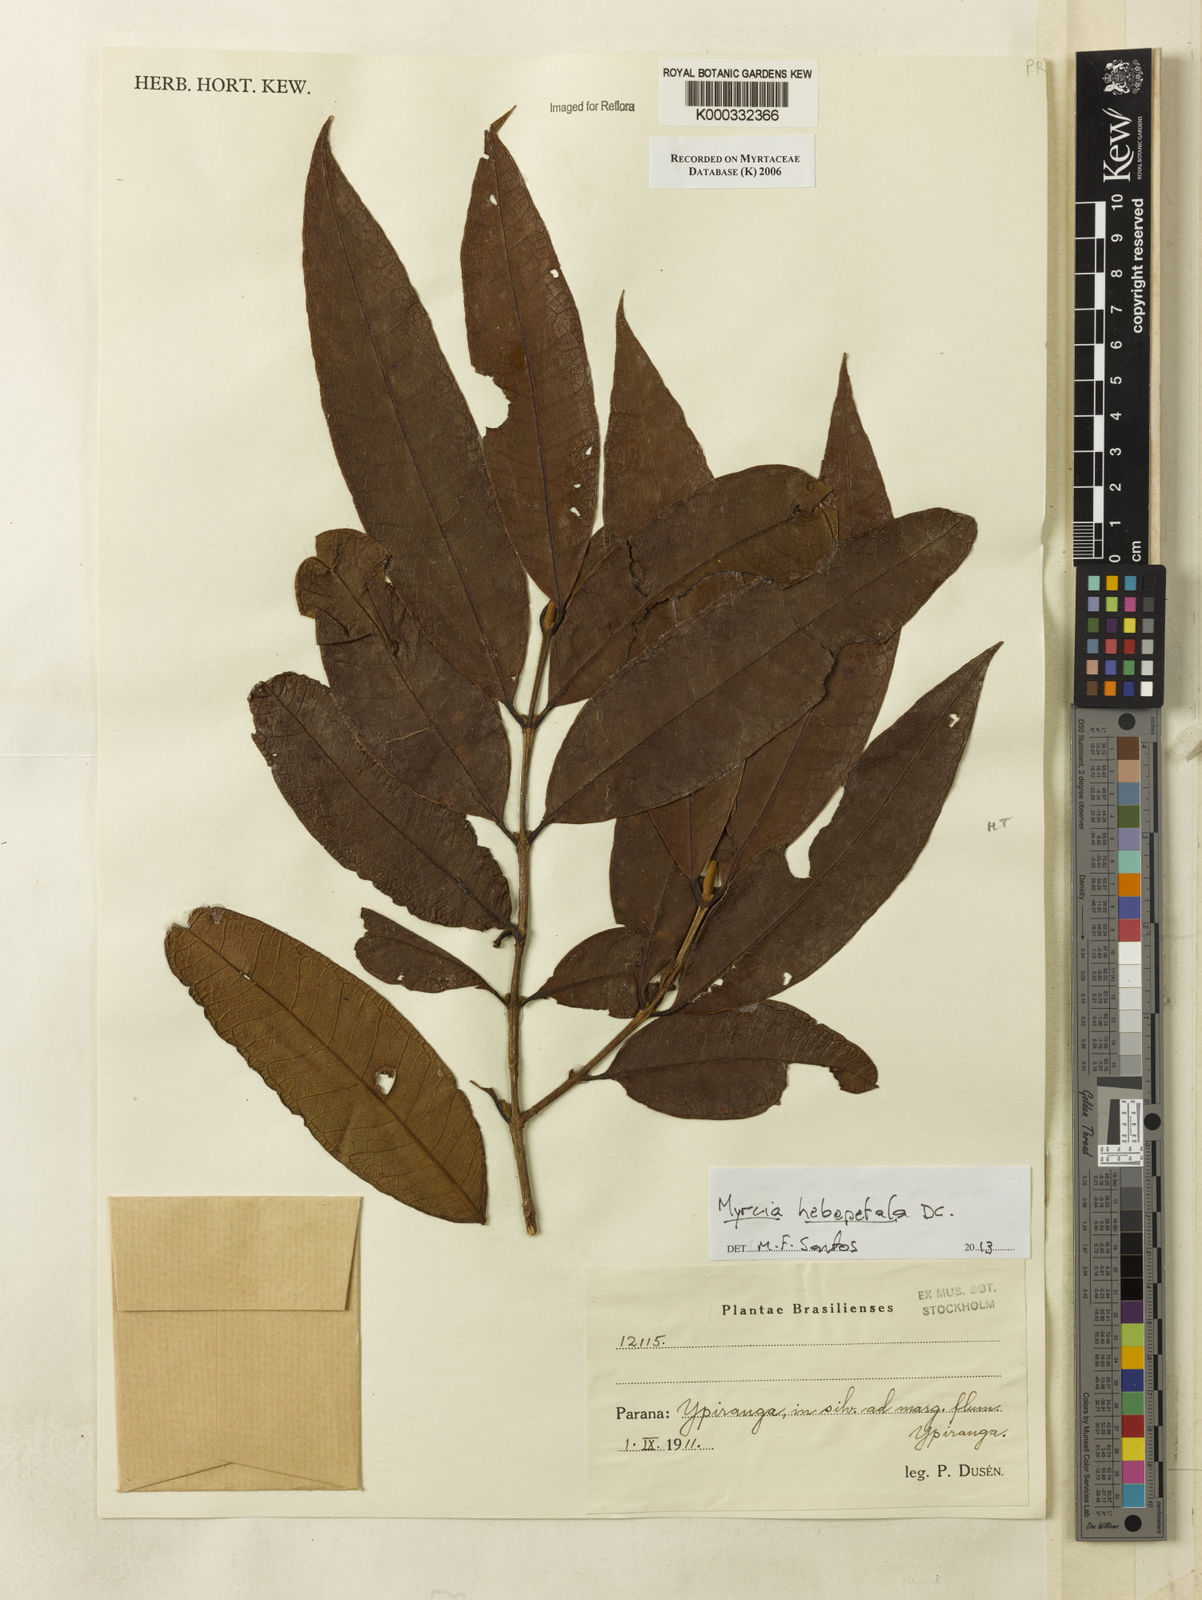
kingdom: Plantae
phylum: Tracheophyta
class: Magnoliopsida
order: Myrtales
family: Myrtaceae
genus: Myrcia
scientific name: Myrcia
